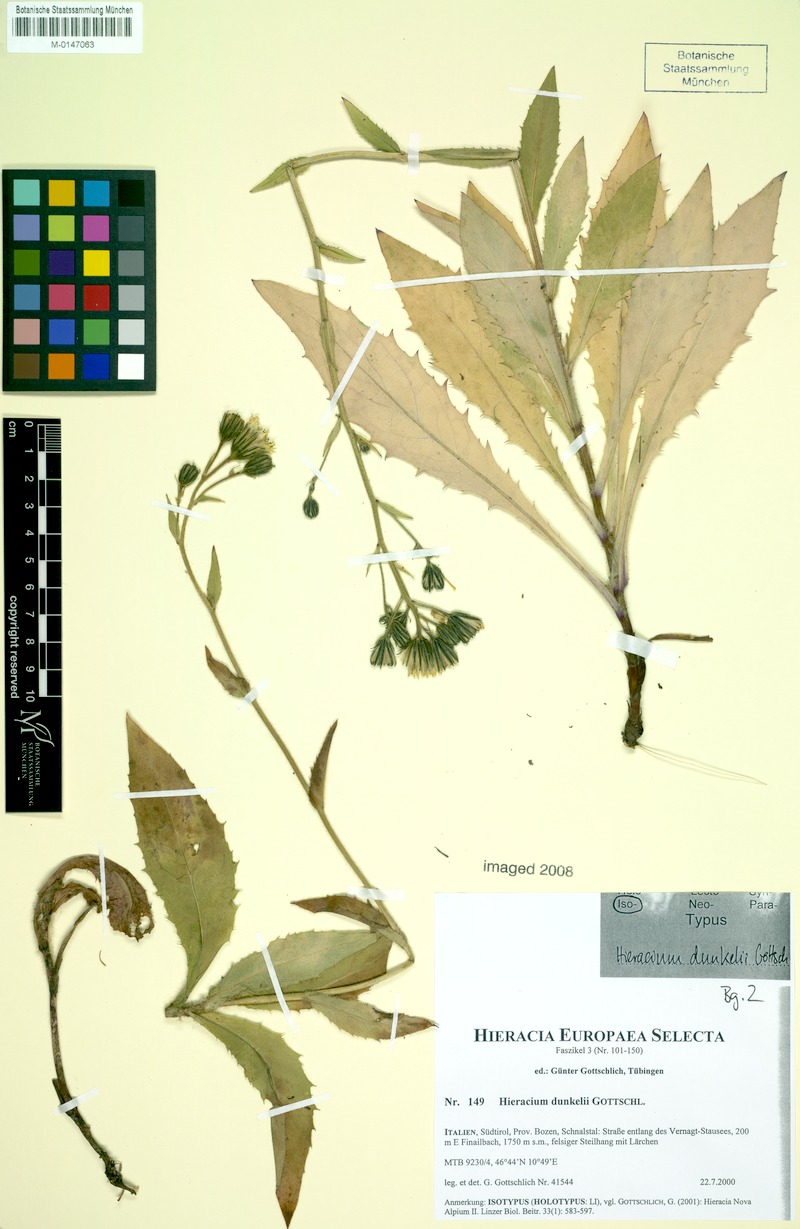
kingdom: Plantae
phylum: Tracheophyta
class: Magnoliopsida
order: Asterales
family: Asteraceae
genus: Hieracium
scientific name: Hieracium dunkelii
